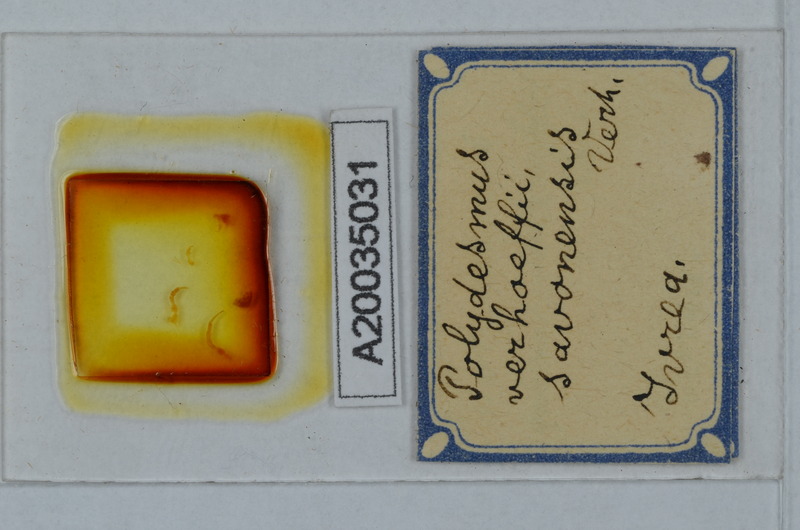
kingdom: Animalia
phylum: Arthropoda
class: Diplopoda
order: Polydesmida
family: Polydesmidae
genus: Polydesmus
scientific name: Polydesmus angustus
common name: Flat millipede
